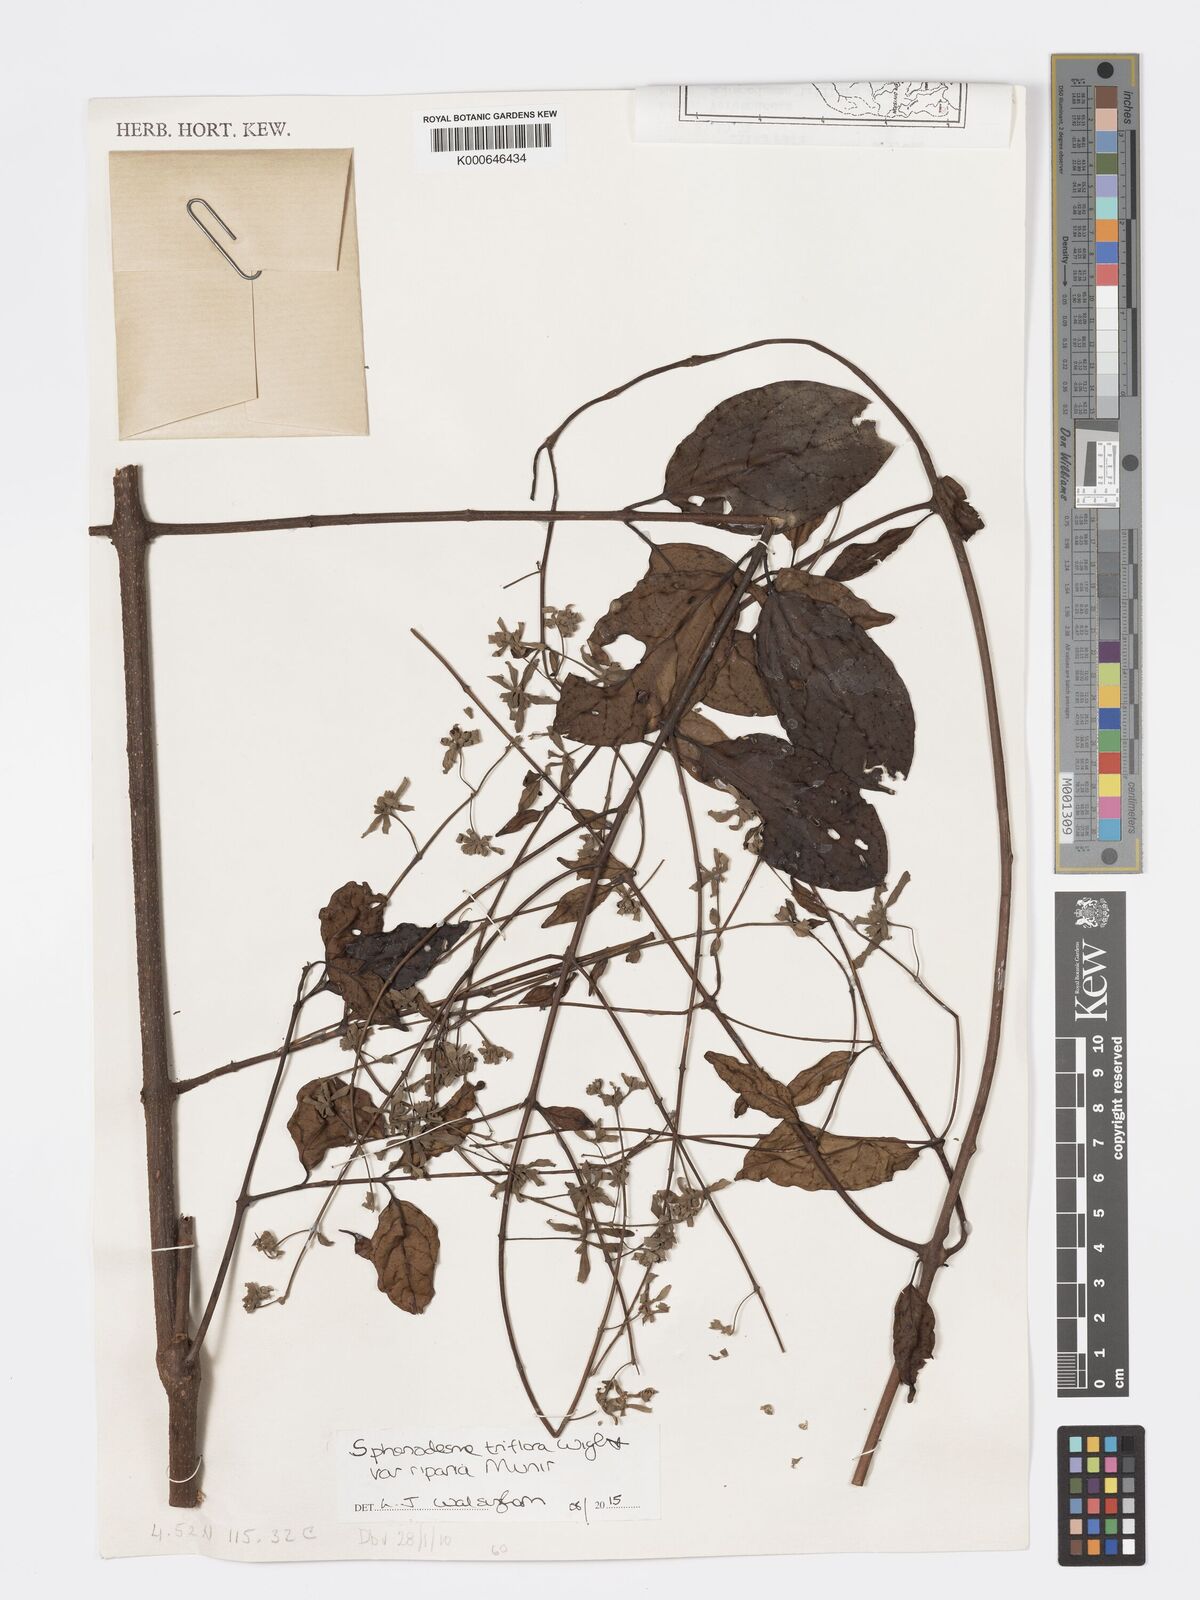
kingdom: Plantae
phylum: Tracheophyta
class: Magnoliopsida
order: Lamiales
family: Lamiaceae
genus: Sphenodesme
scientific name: Sphenodesme triflora
